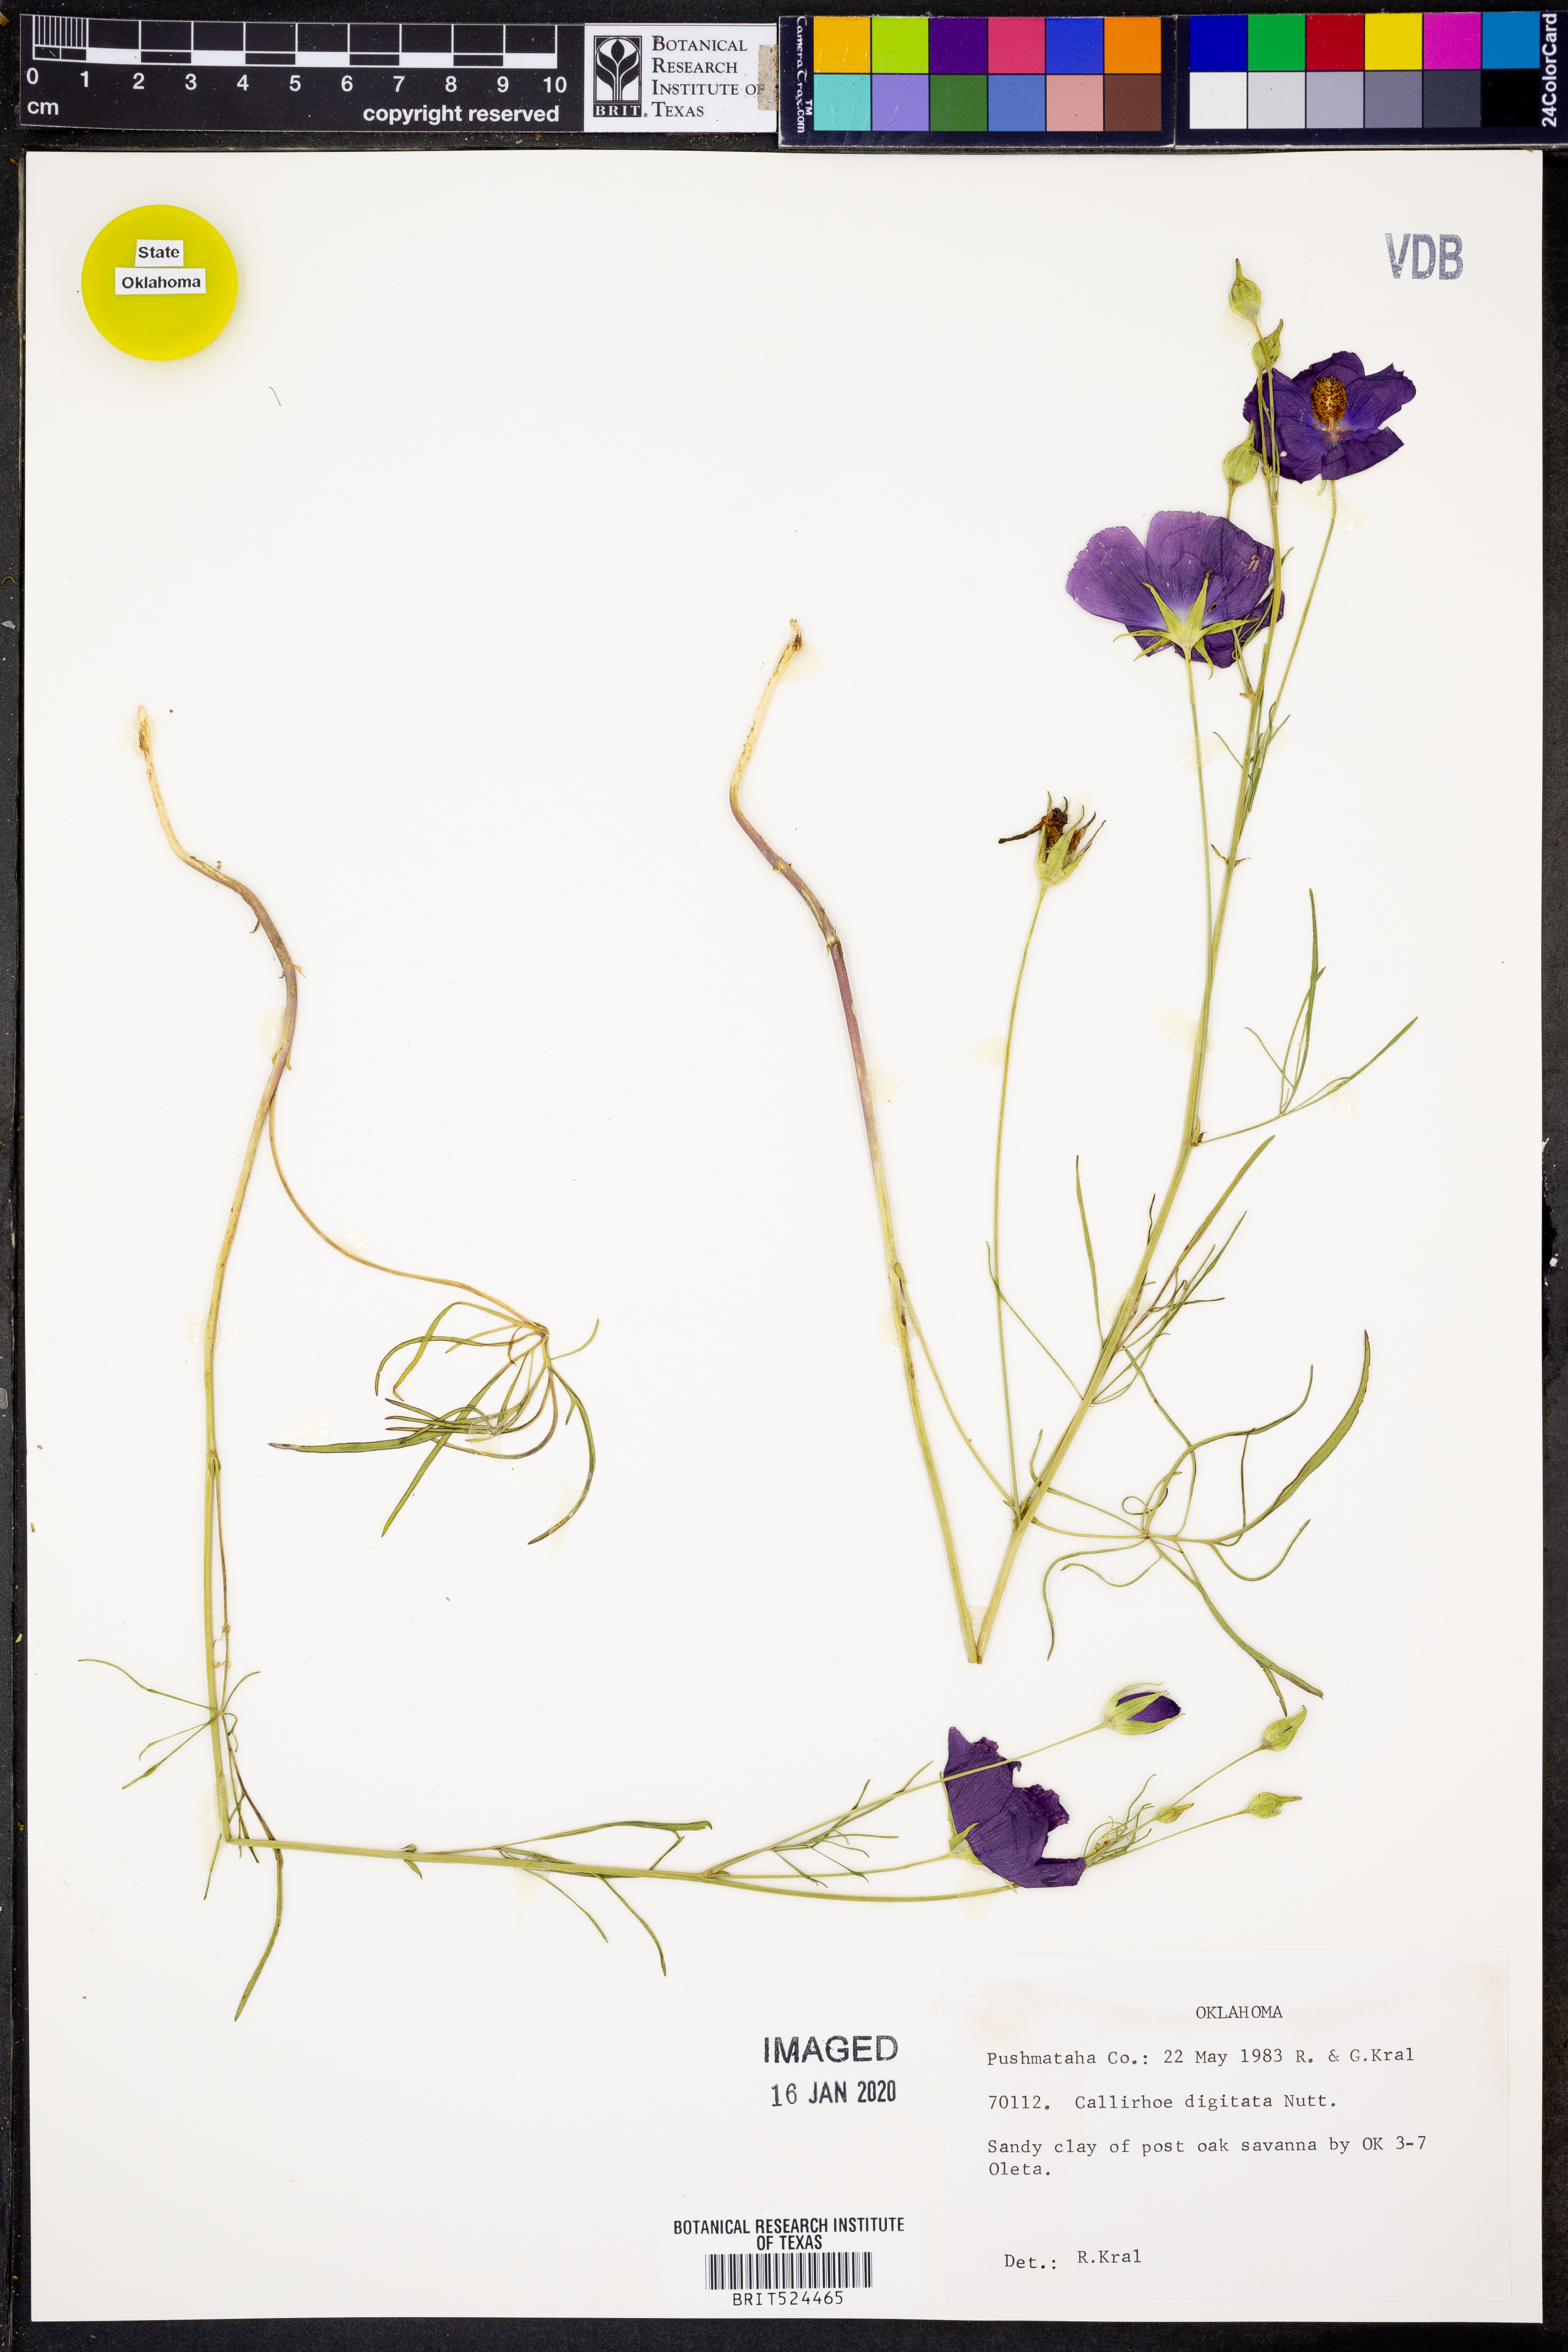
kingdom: Plantae
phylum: Tracheophyta
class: Magnoliopsida
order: Malvales
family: Malvaceae
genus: Callirhoe
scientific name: Callirhoe digitata
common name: Finger poppy-mallow
